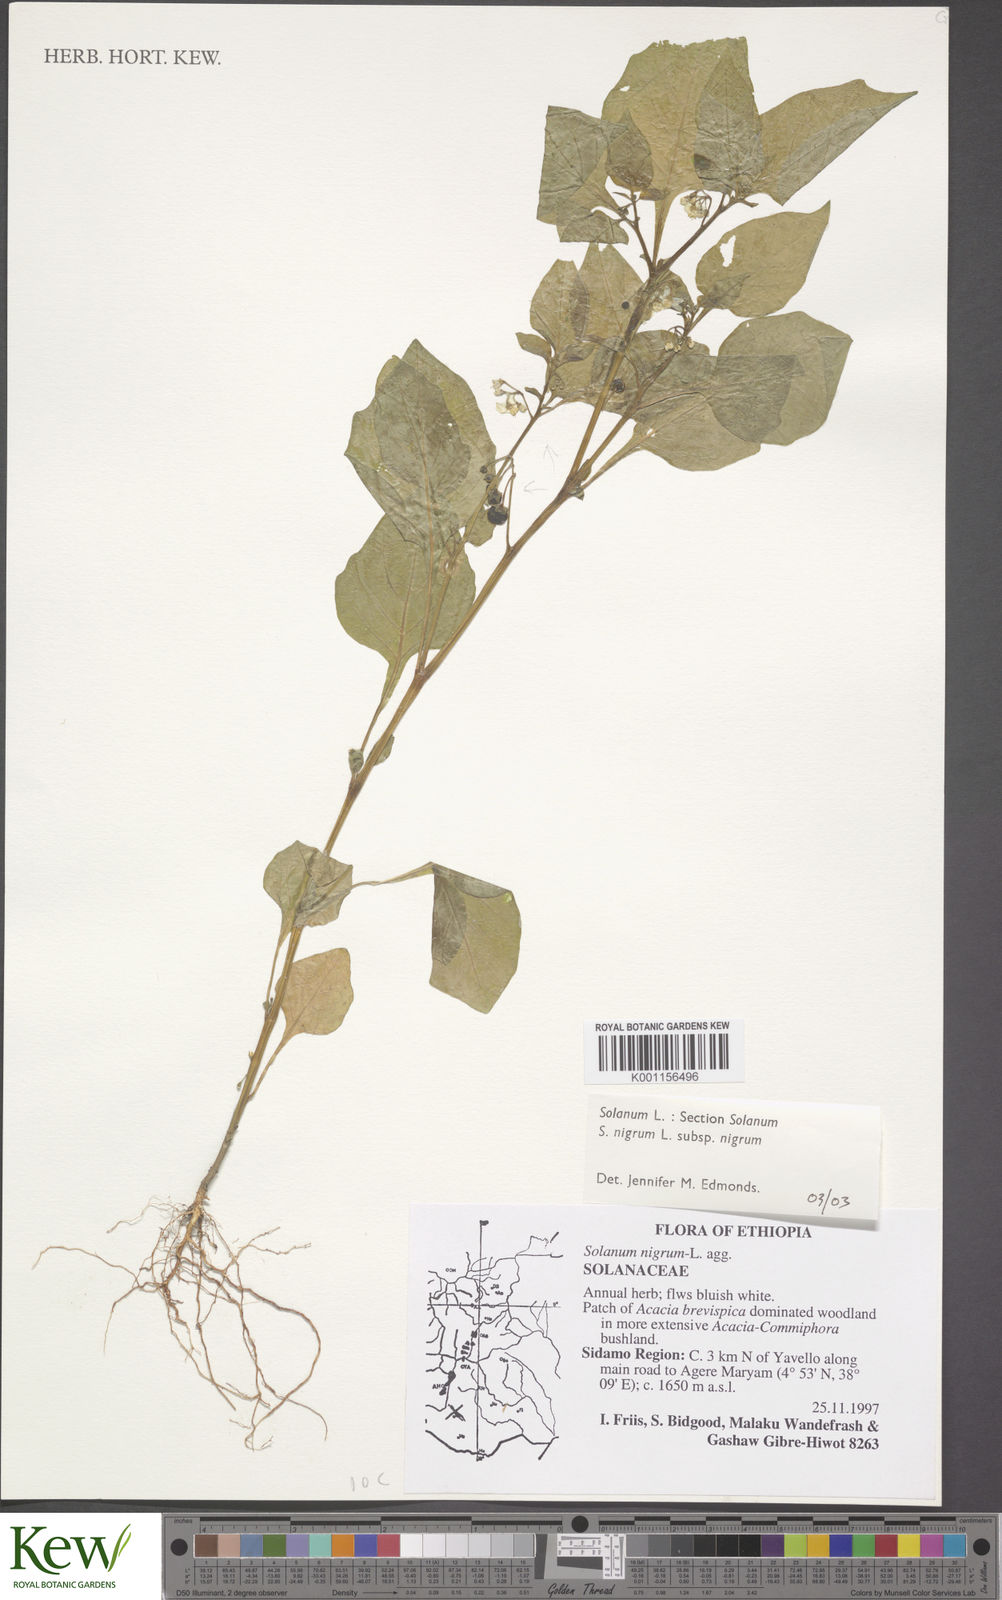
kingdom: Plantae
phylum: Tracheophyta
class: Magnoliopsida
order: Solanales
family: Solanaceae
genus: Solanum
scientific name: Solanum tarderemotum
